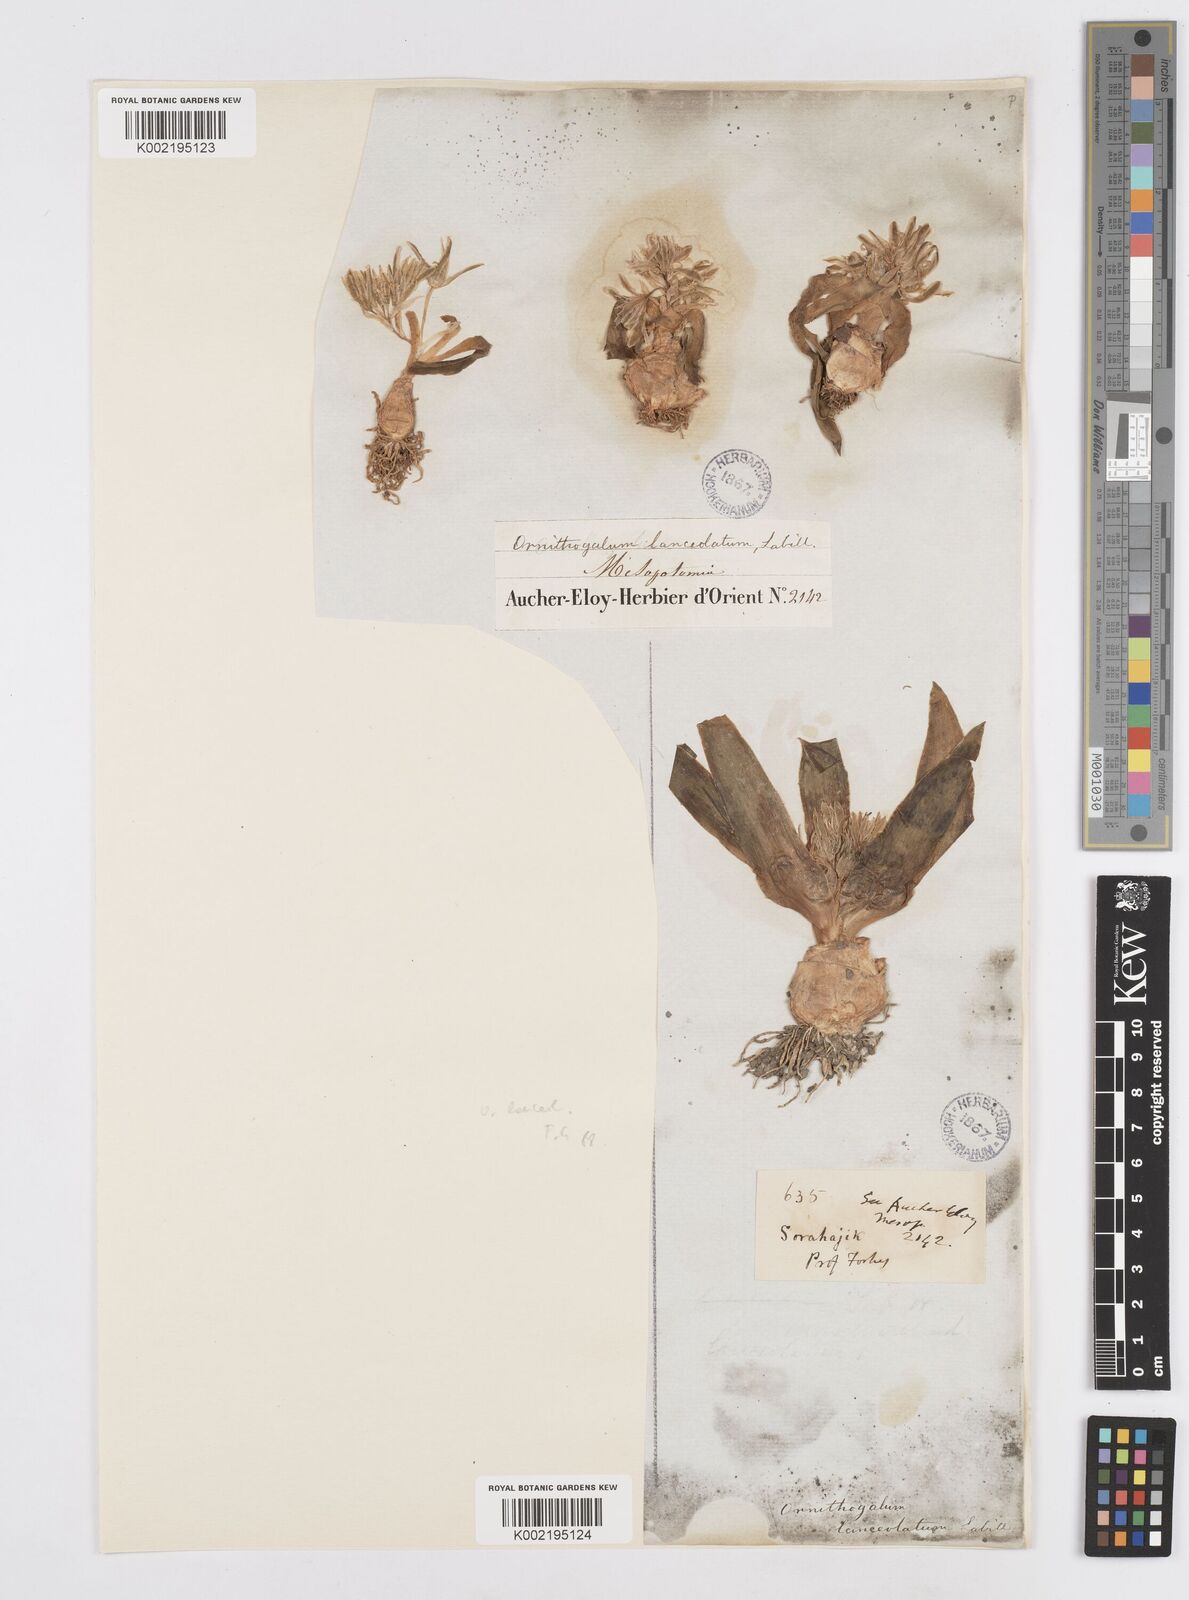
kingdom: Plantae
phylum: Tracheophyta
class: Liliopsida
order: Asparagales
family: Asparagaceae
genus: Ornithogalum
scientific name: Ornithogalum lanceolatum
